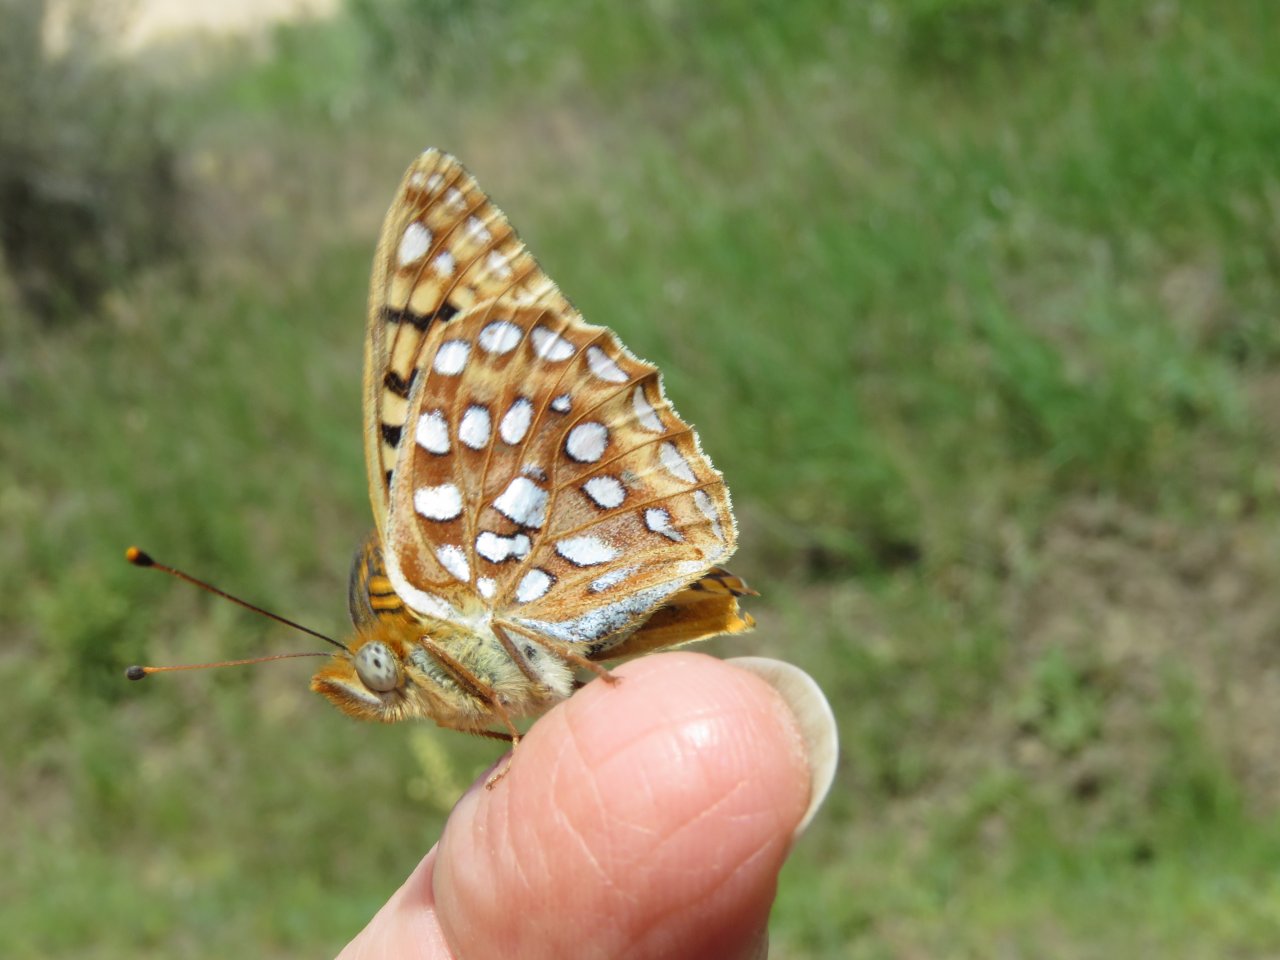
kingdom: Animalia
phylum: Arthropoda
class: Insecta
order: Lepidoptera
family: Nymphalidae
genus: Speyeria
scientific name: Speyeria zerene
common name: Zerene Fritillary
